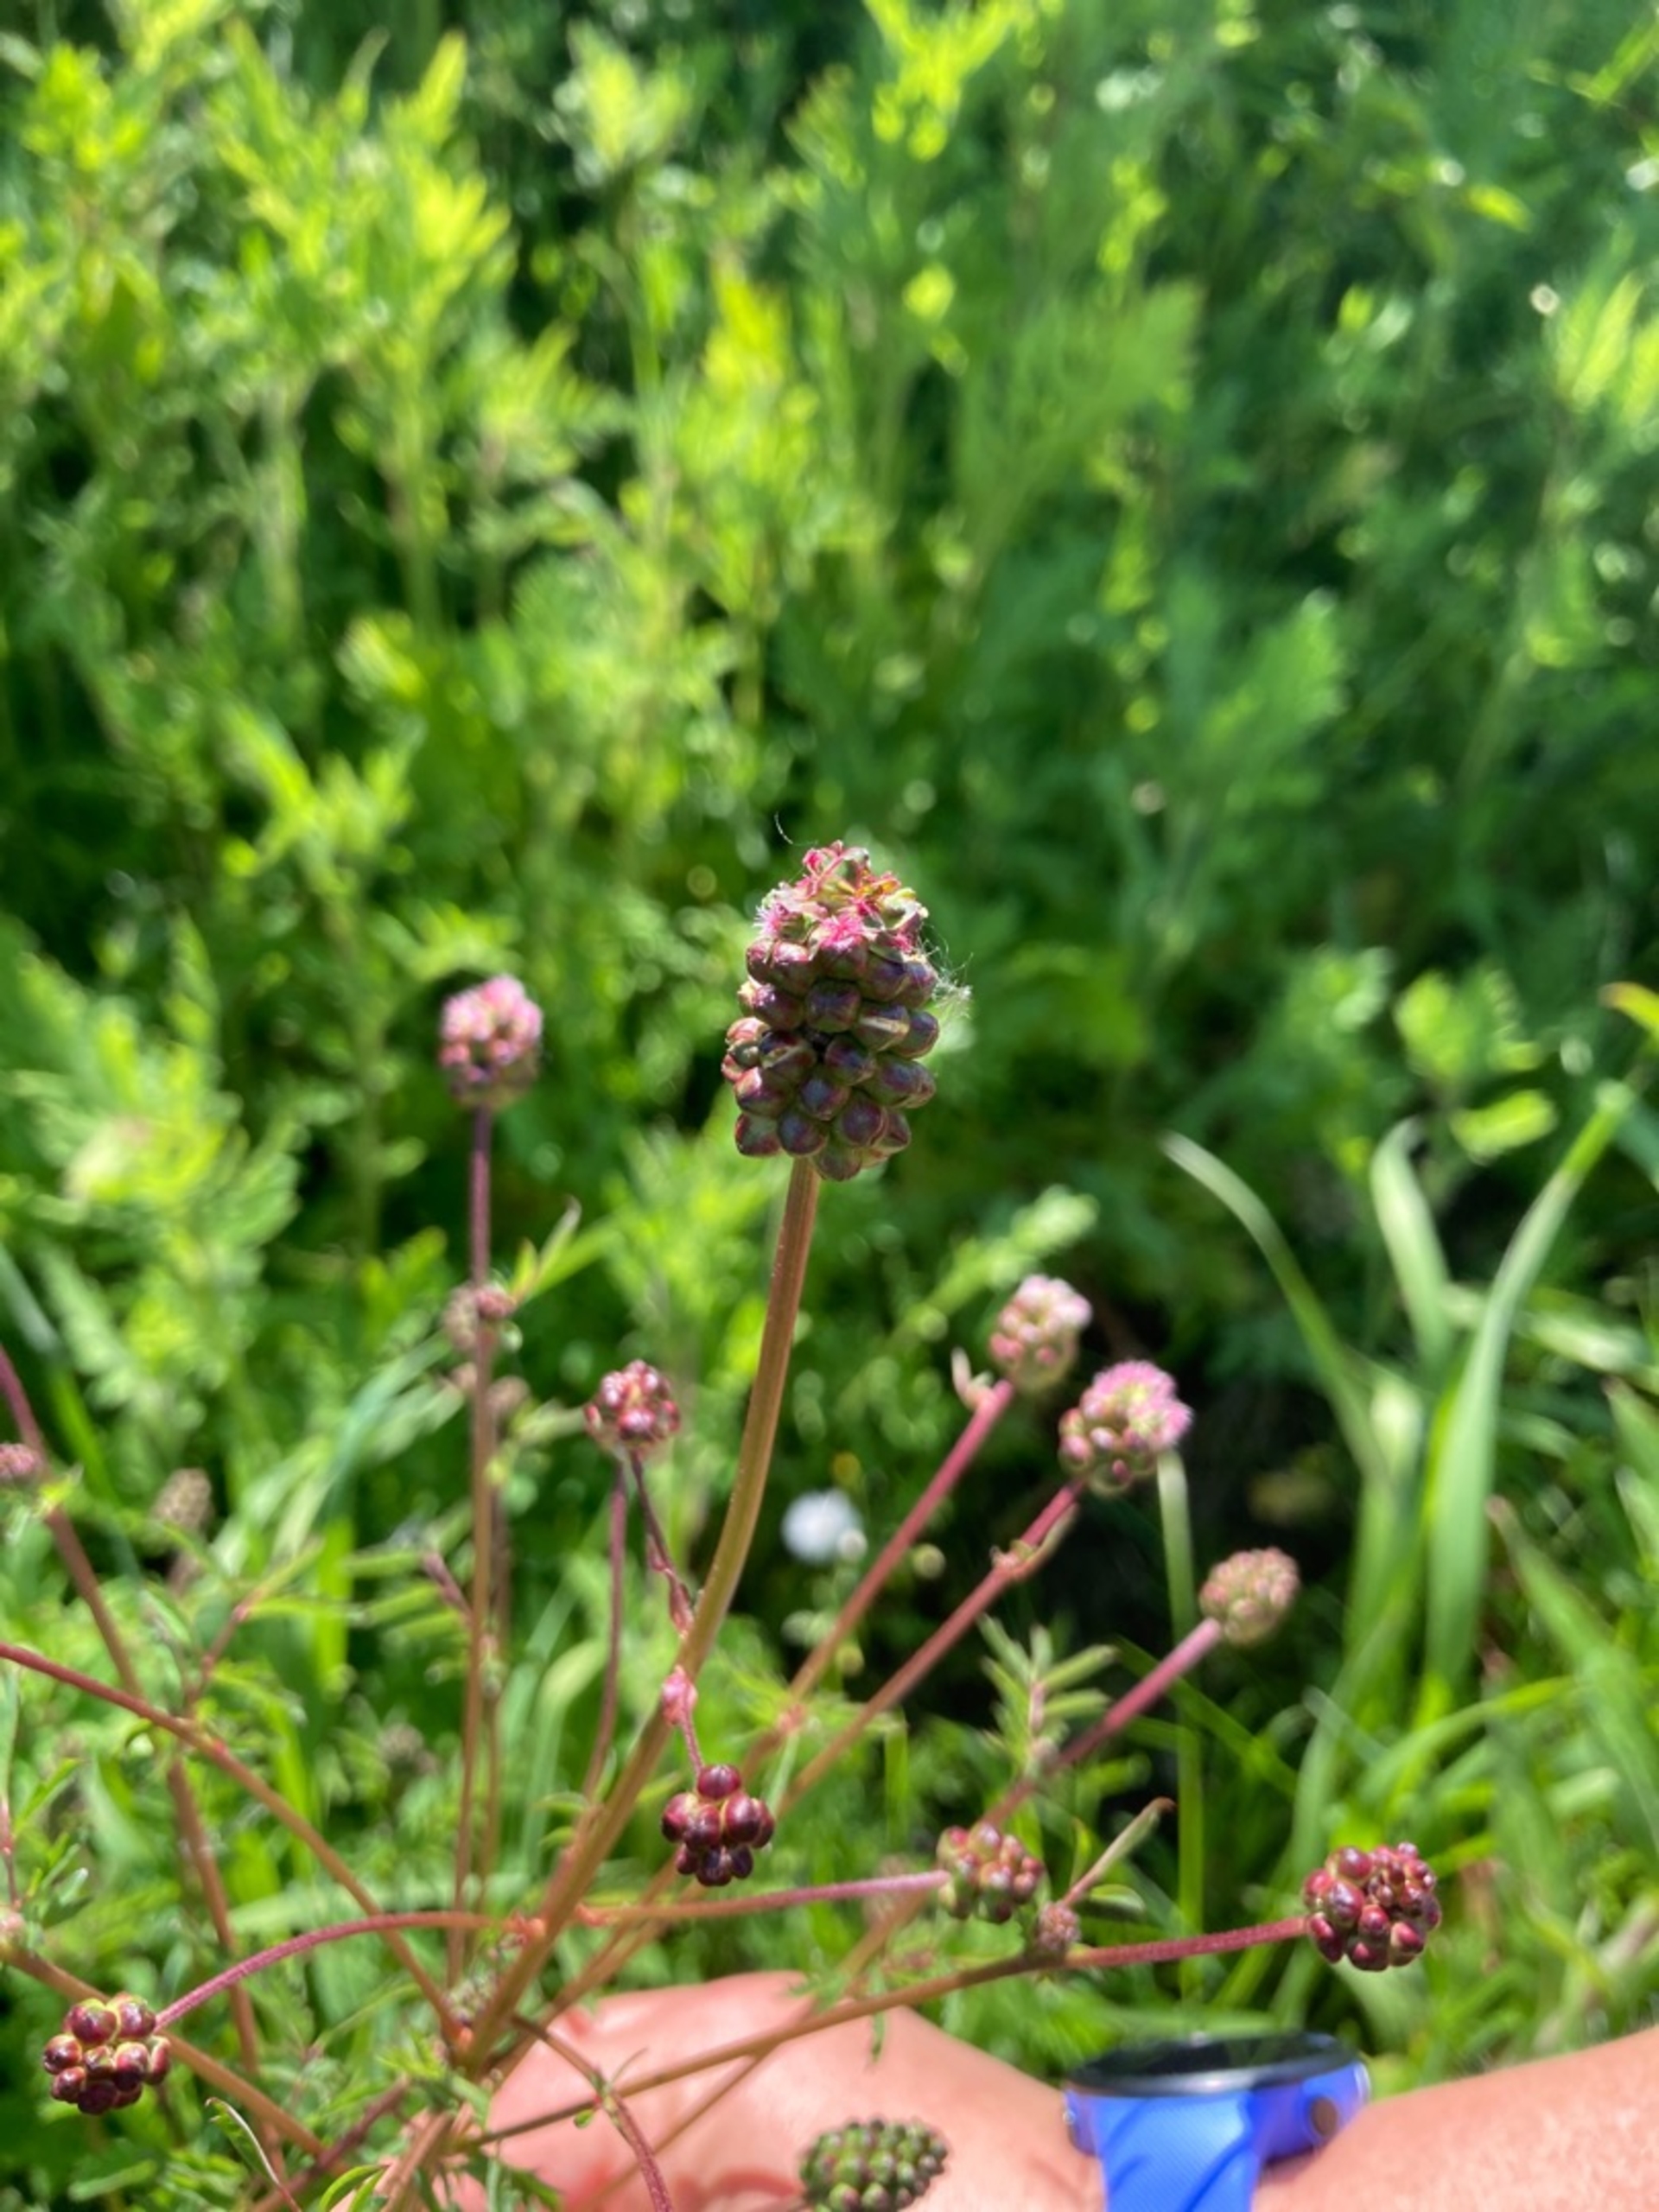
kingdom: Plantae
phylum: Tracheophyta
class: Magnoliopsida
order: Rosales
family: Rosaceae
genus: Poterium
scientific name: Poterium sanguisorba
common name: Bibernelle
